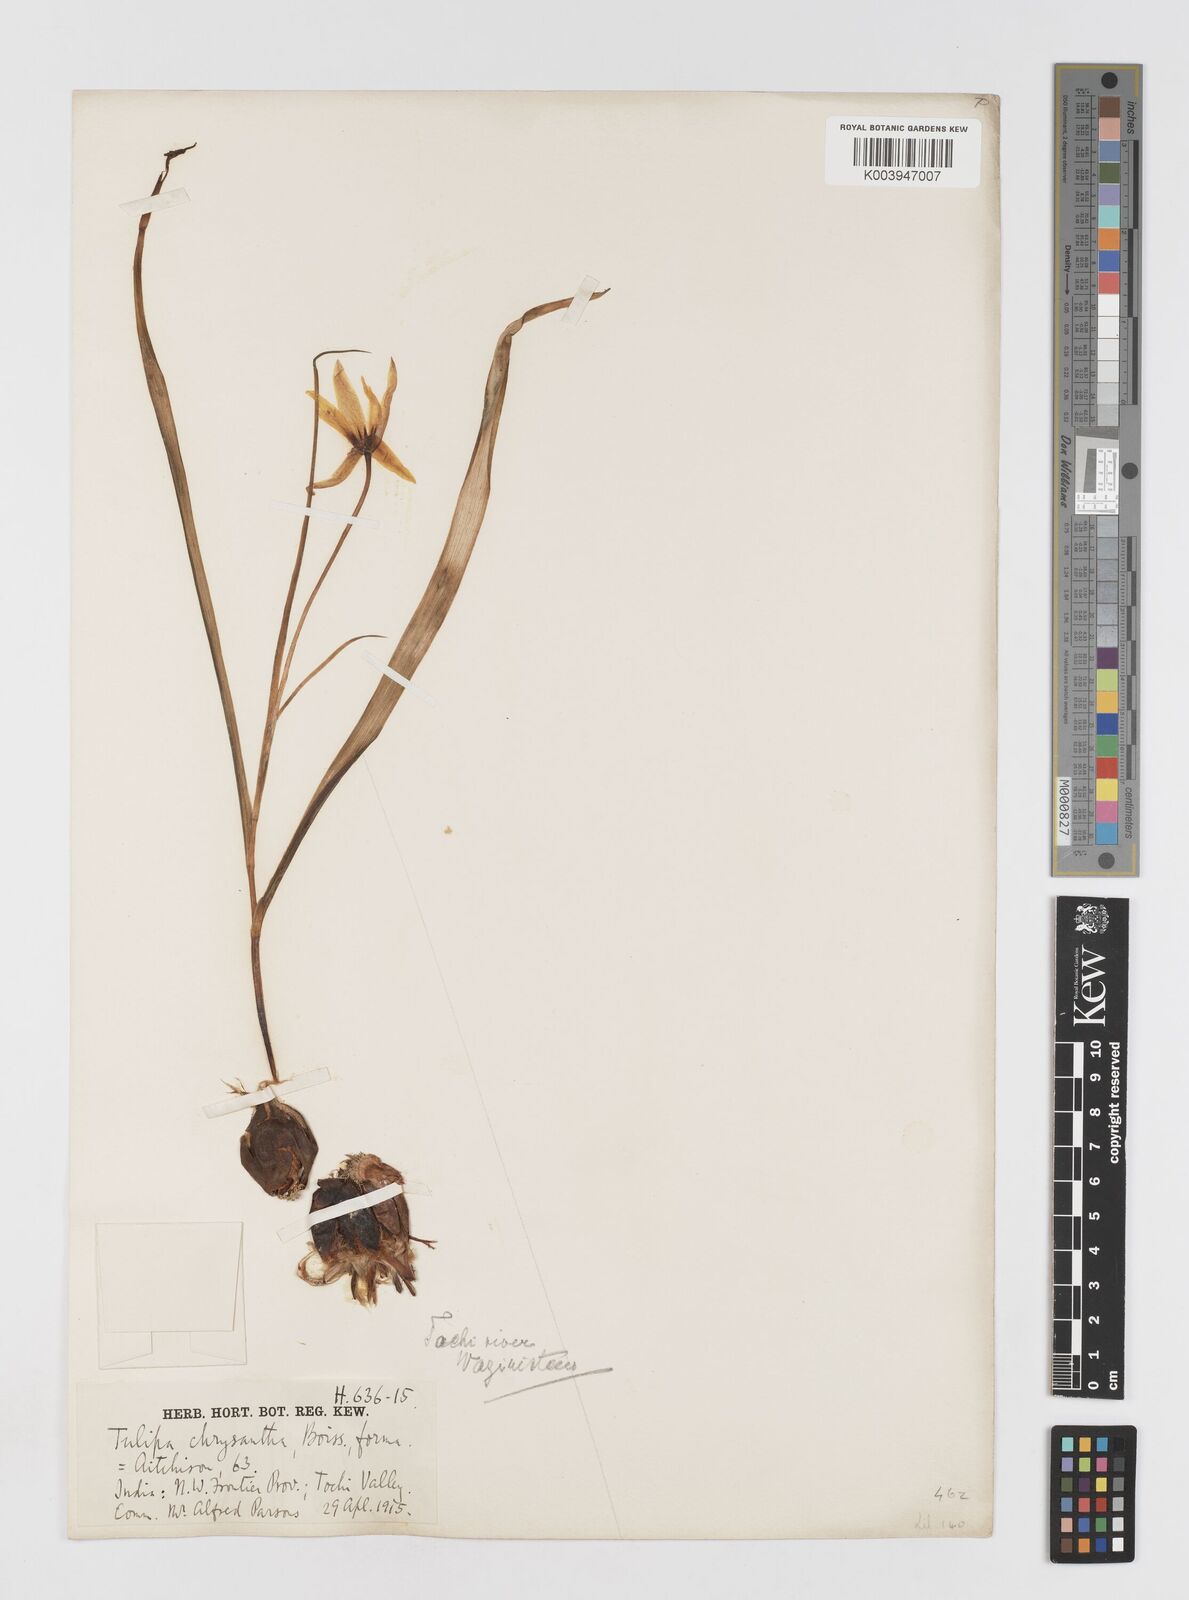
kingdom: Plantae
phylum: Tracheophyta
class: Liliopsida
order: Liliales
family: Liliaceae
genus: Tulipa
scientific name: Tulipa clusiana
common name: Lady tulip
